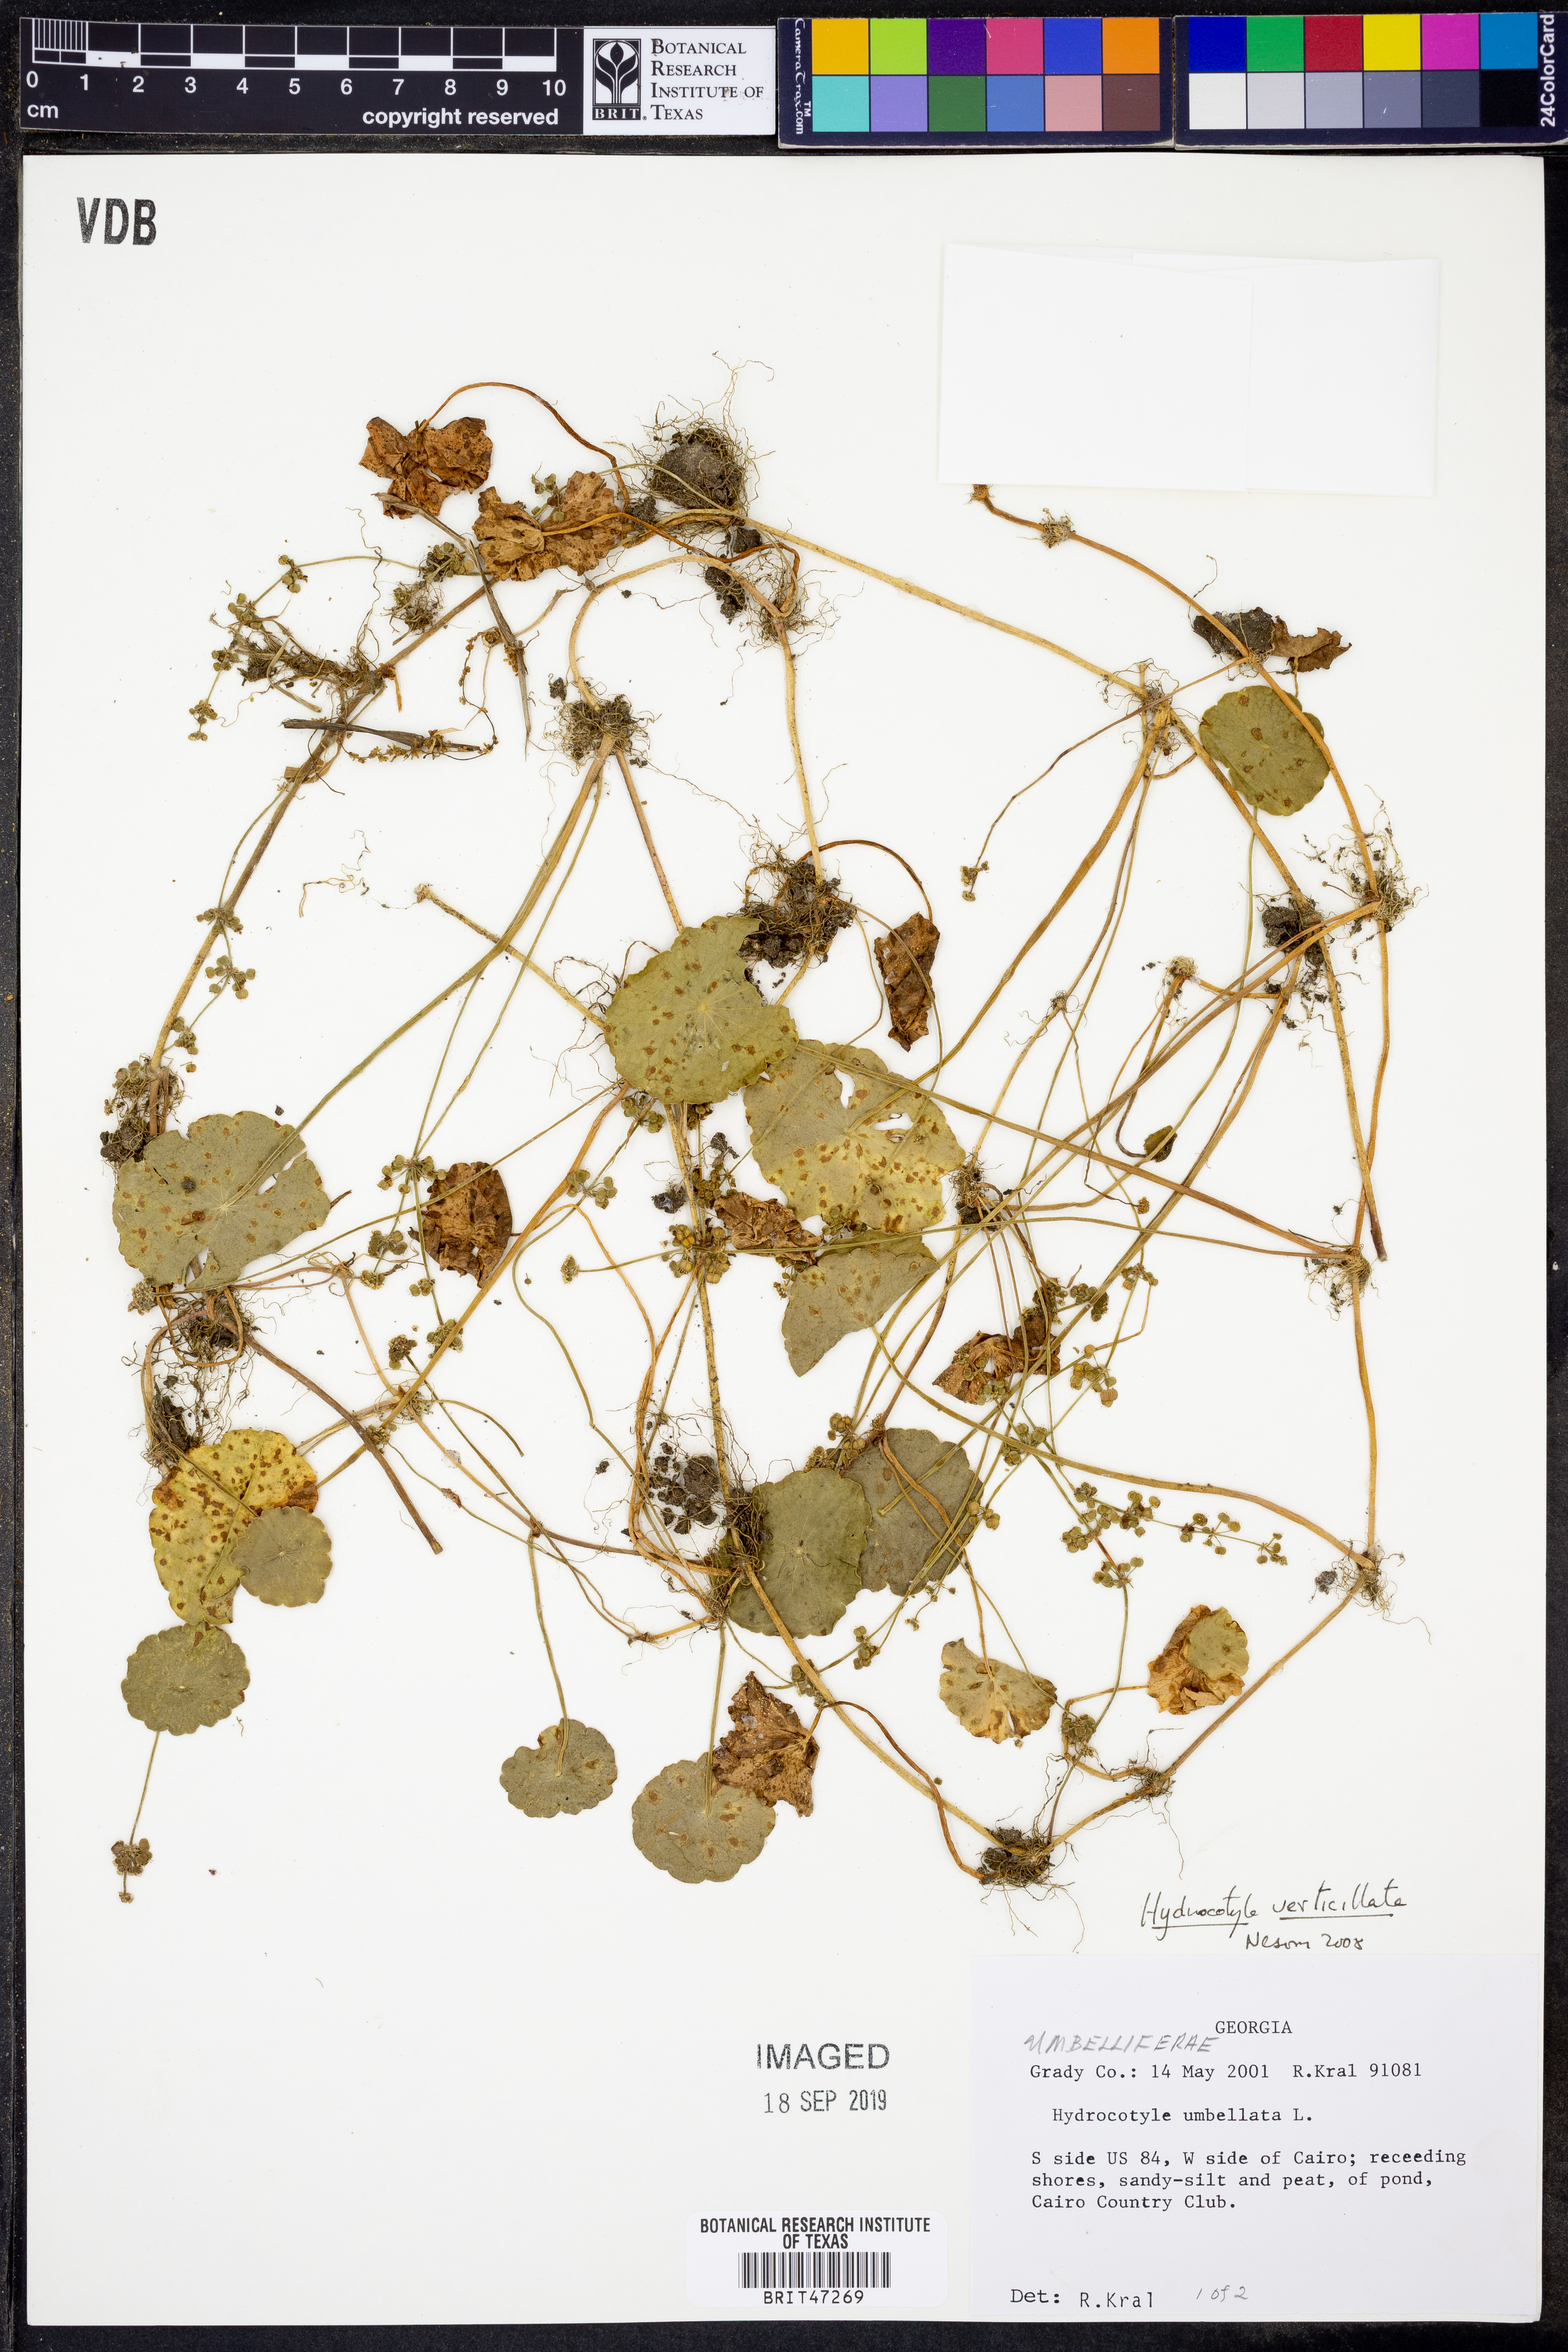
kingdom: Plantae
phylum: Tracheophyta
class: Magnoliopsida
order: Apiales
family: Araliaceae
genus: Hydrocotyle
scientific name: Hydrocotyle verticillata
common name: Whorled marshpennywort
